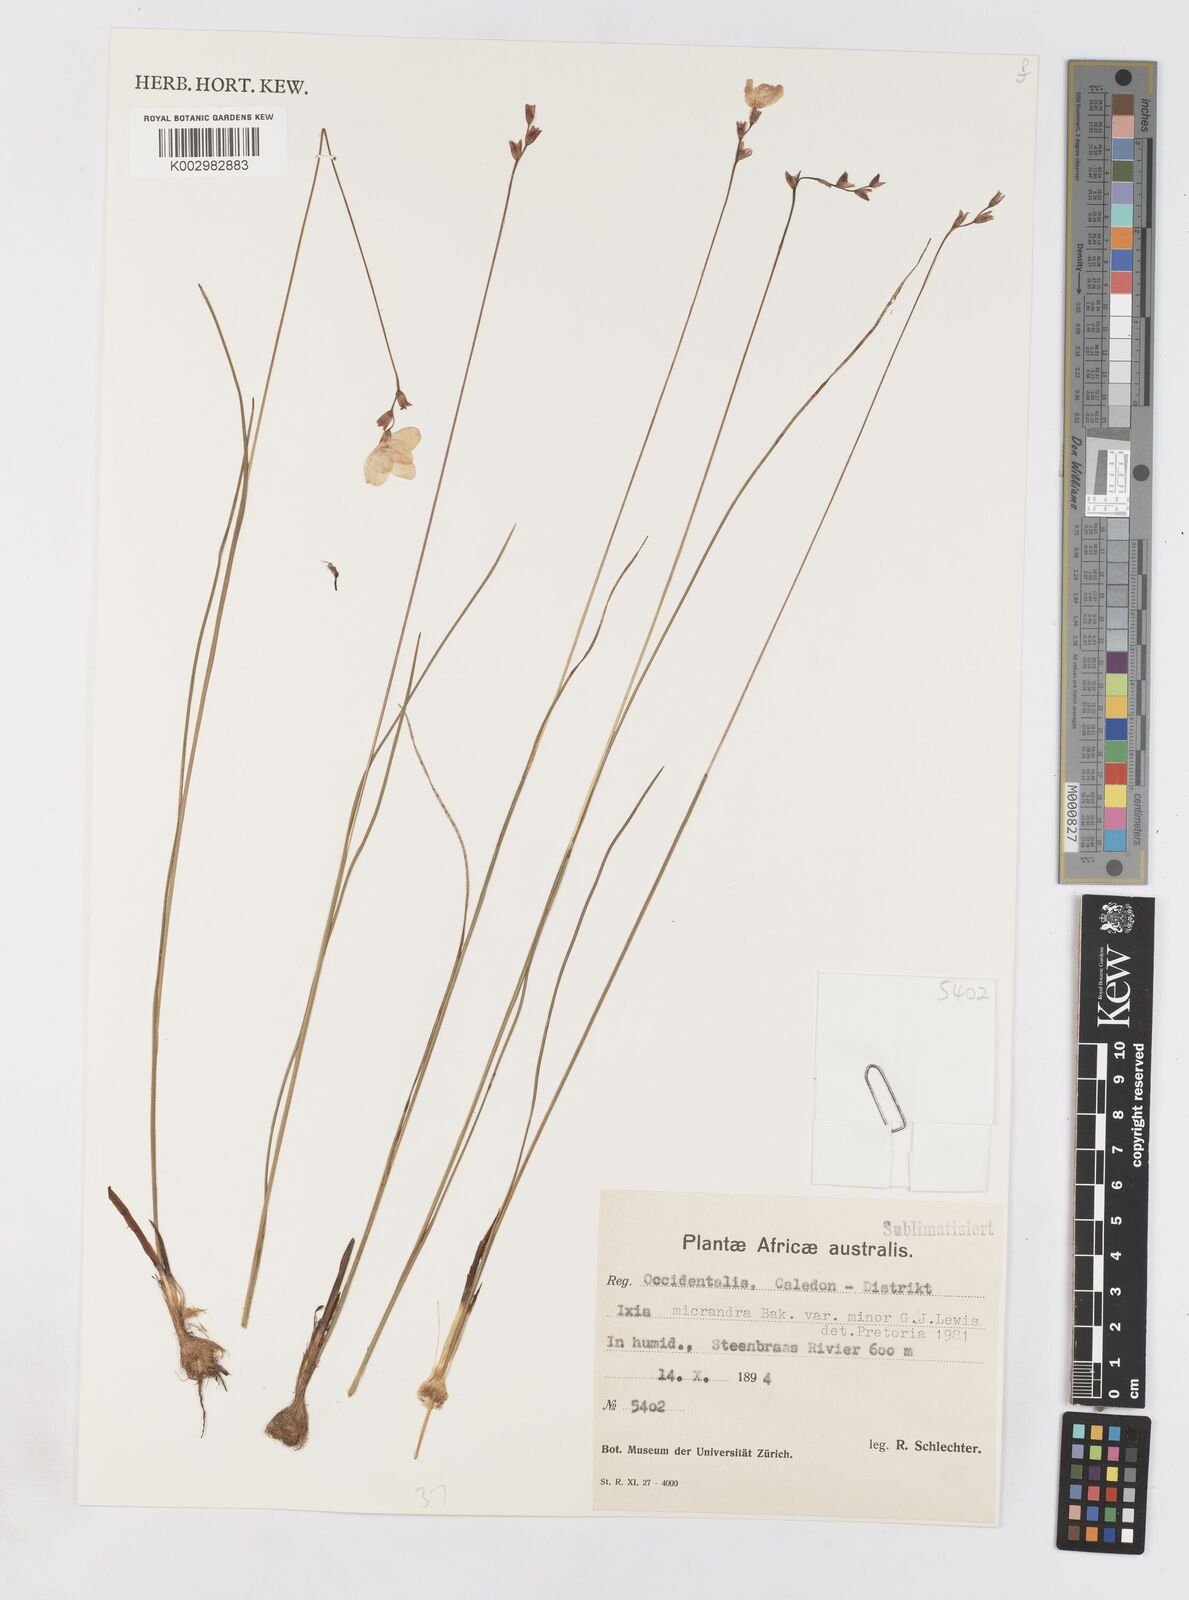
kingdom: Plantae
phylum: Tracheophyta
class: Liliopsida
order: Asparagales
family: Iridaceae
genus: Ixia
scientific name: Ixia minor
